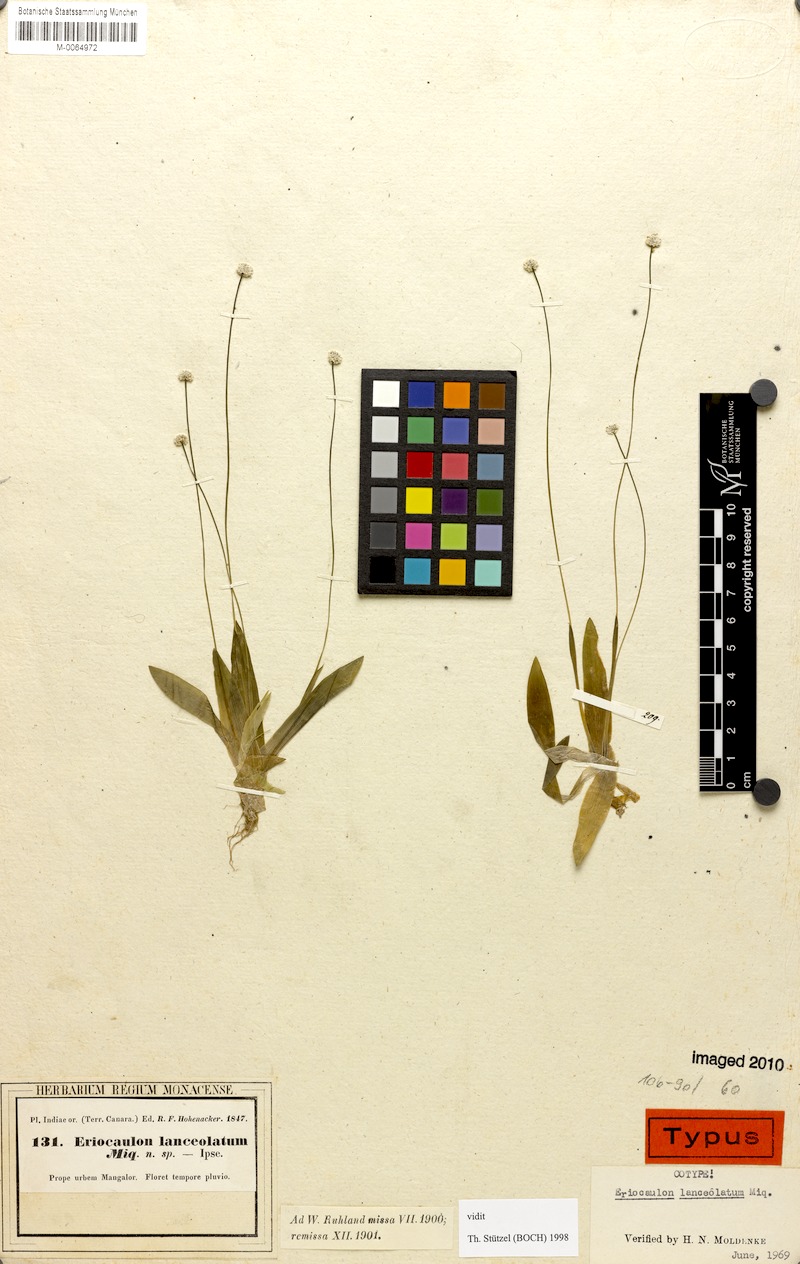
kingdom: Plantae
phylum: Tracheophyta
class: Liliopsida
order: Poales
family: Eriocaulaceae
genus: Eriocaulon
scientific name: Eriocaulon lanceolatum
